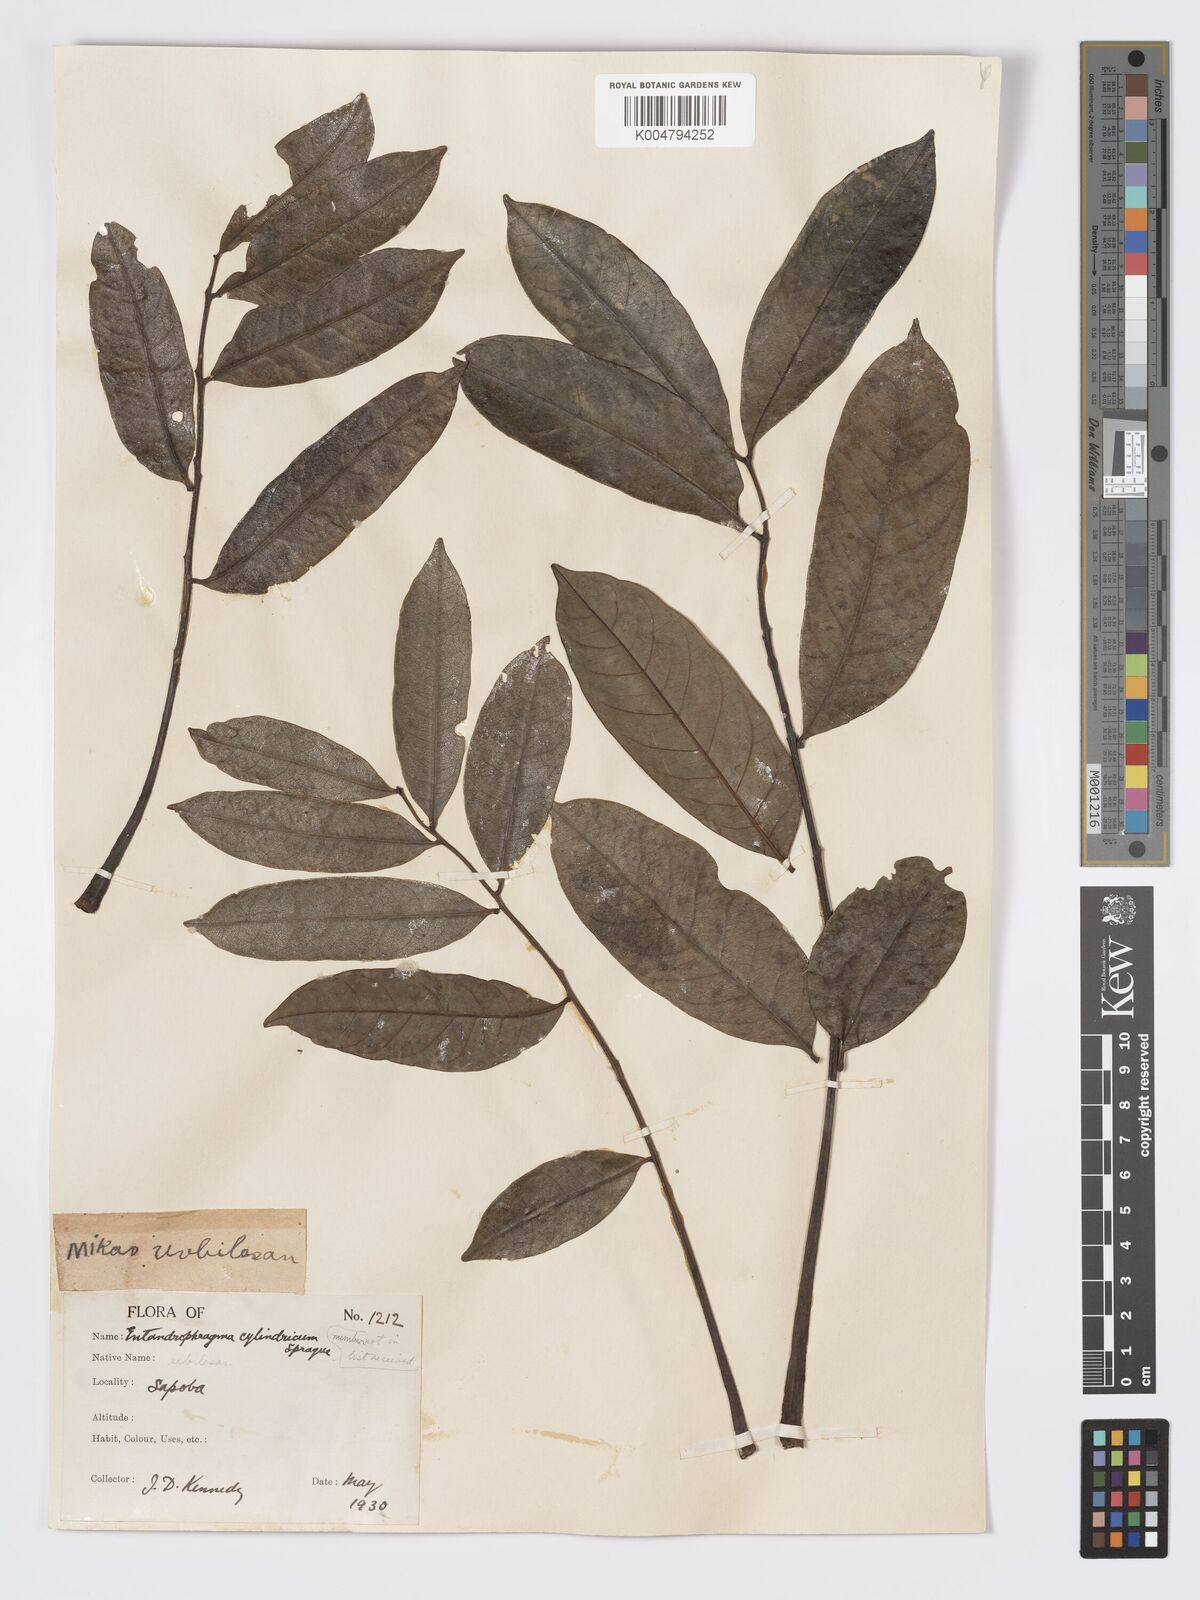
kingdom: Plantae
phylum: Tracheophyta
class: Magnoliopsida
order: Sapindales
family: Meliaceae
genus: Entandrophragma
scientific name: Entandrophragma cylindricum
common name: Sapele
